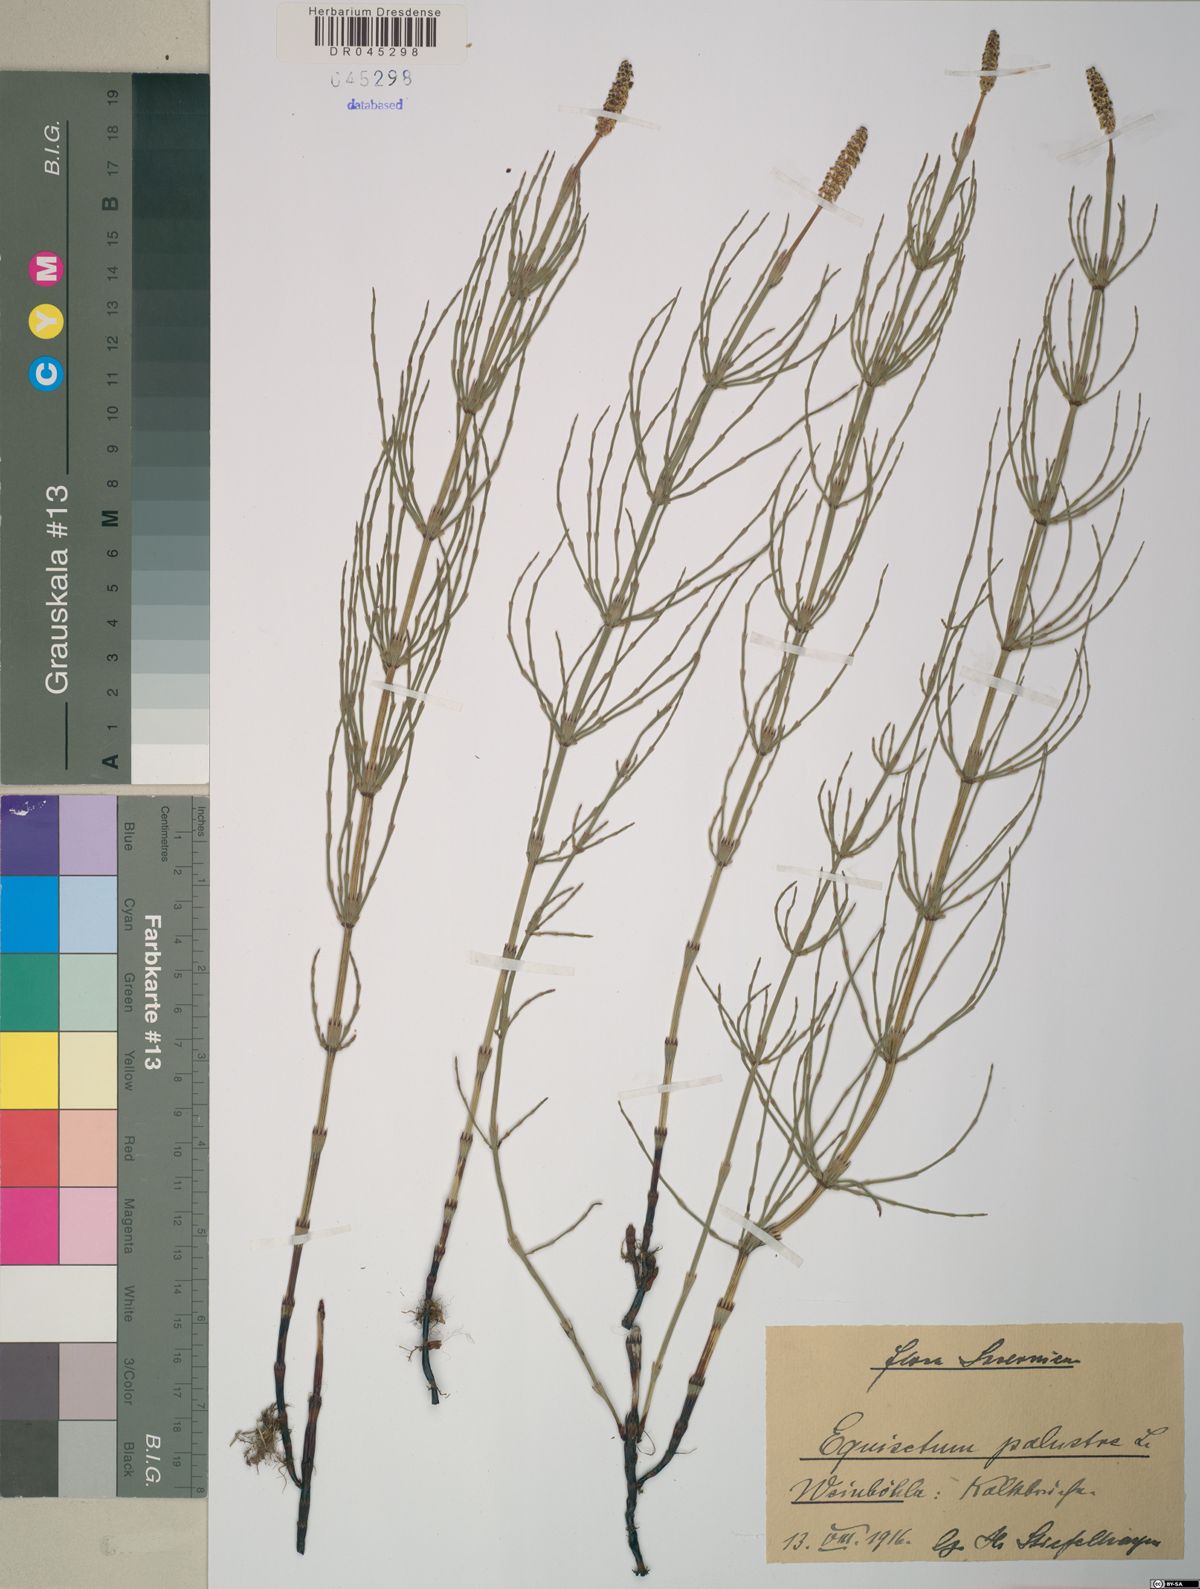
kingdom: Plantae
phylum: Tracheophyta
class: Polypodiopsida
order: Polypodiales
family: Cystopteridaceae
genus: Gymnocarpium
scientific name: Gymnocarpium robertianum
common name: Limestone fern
